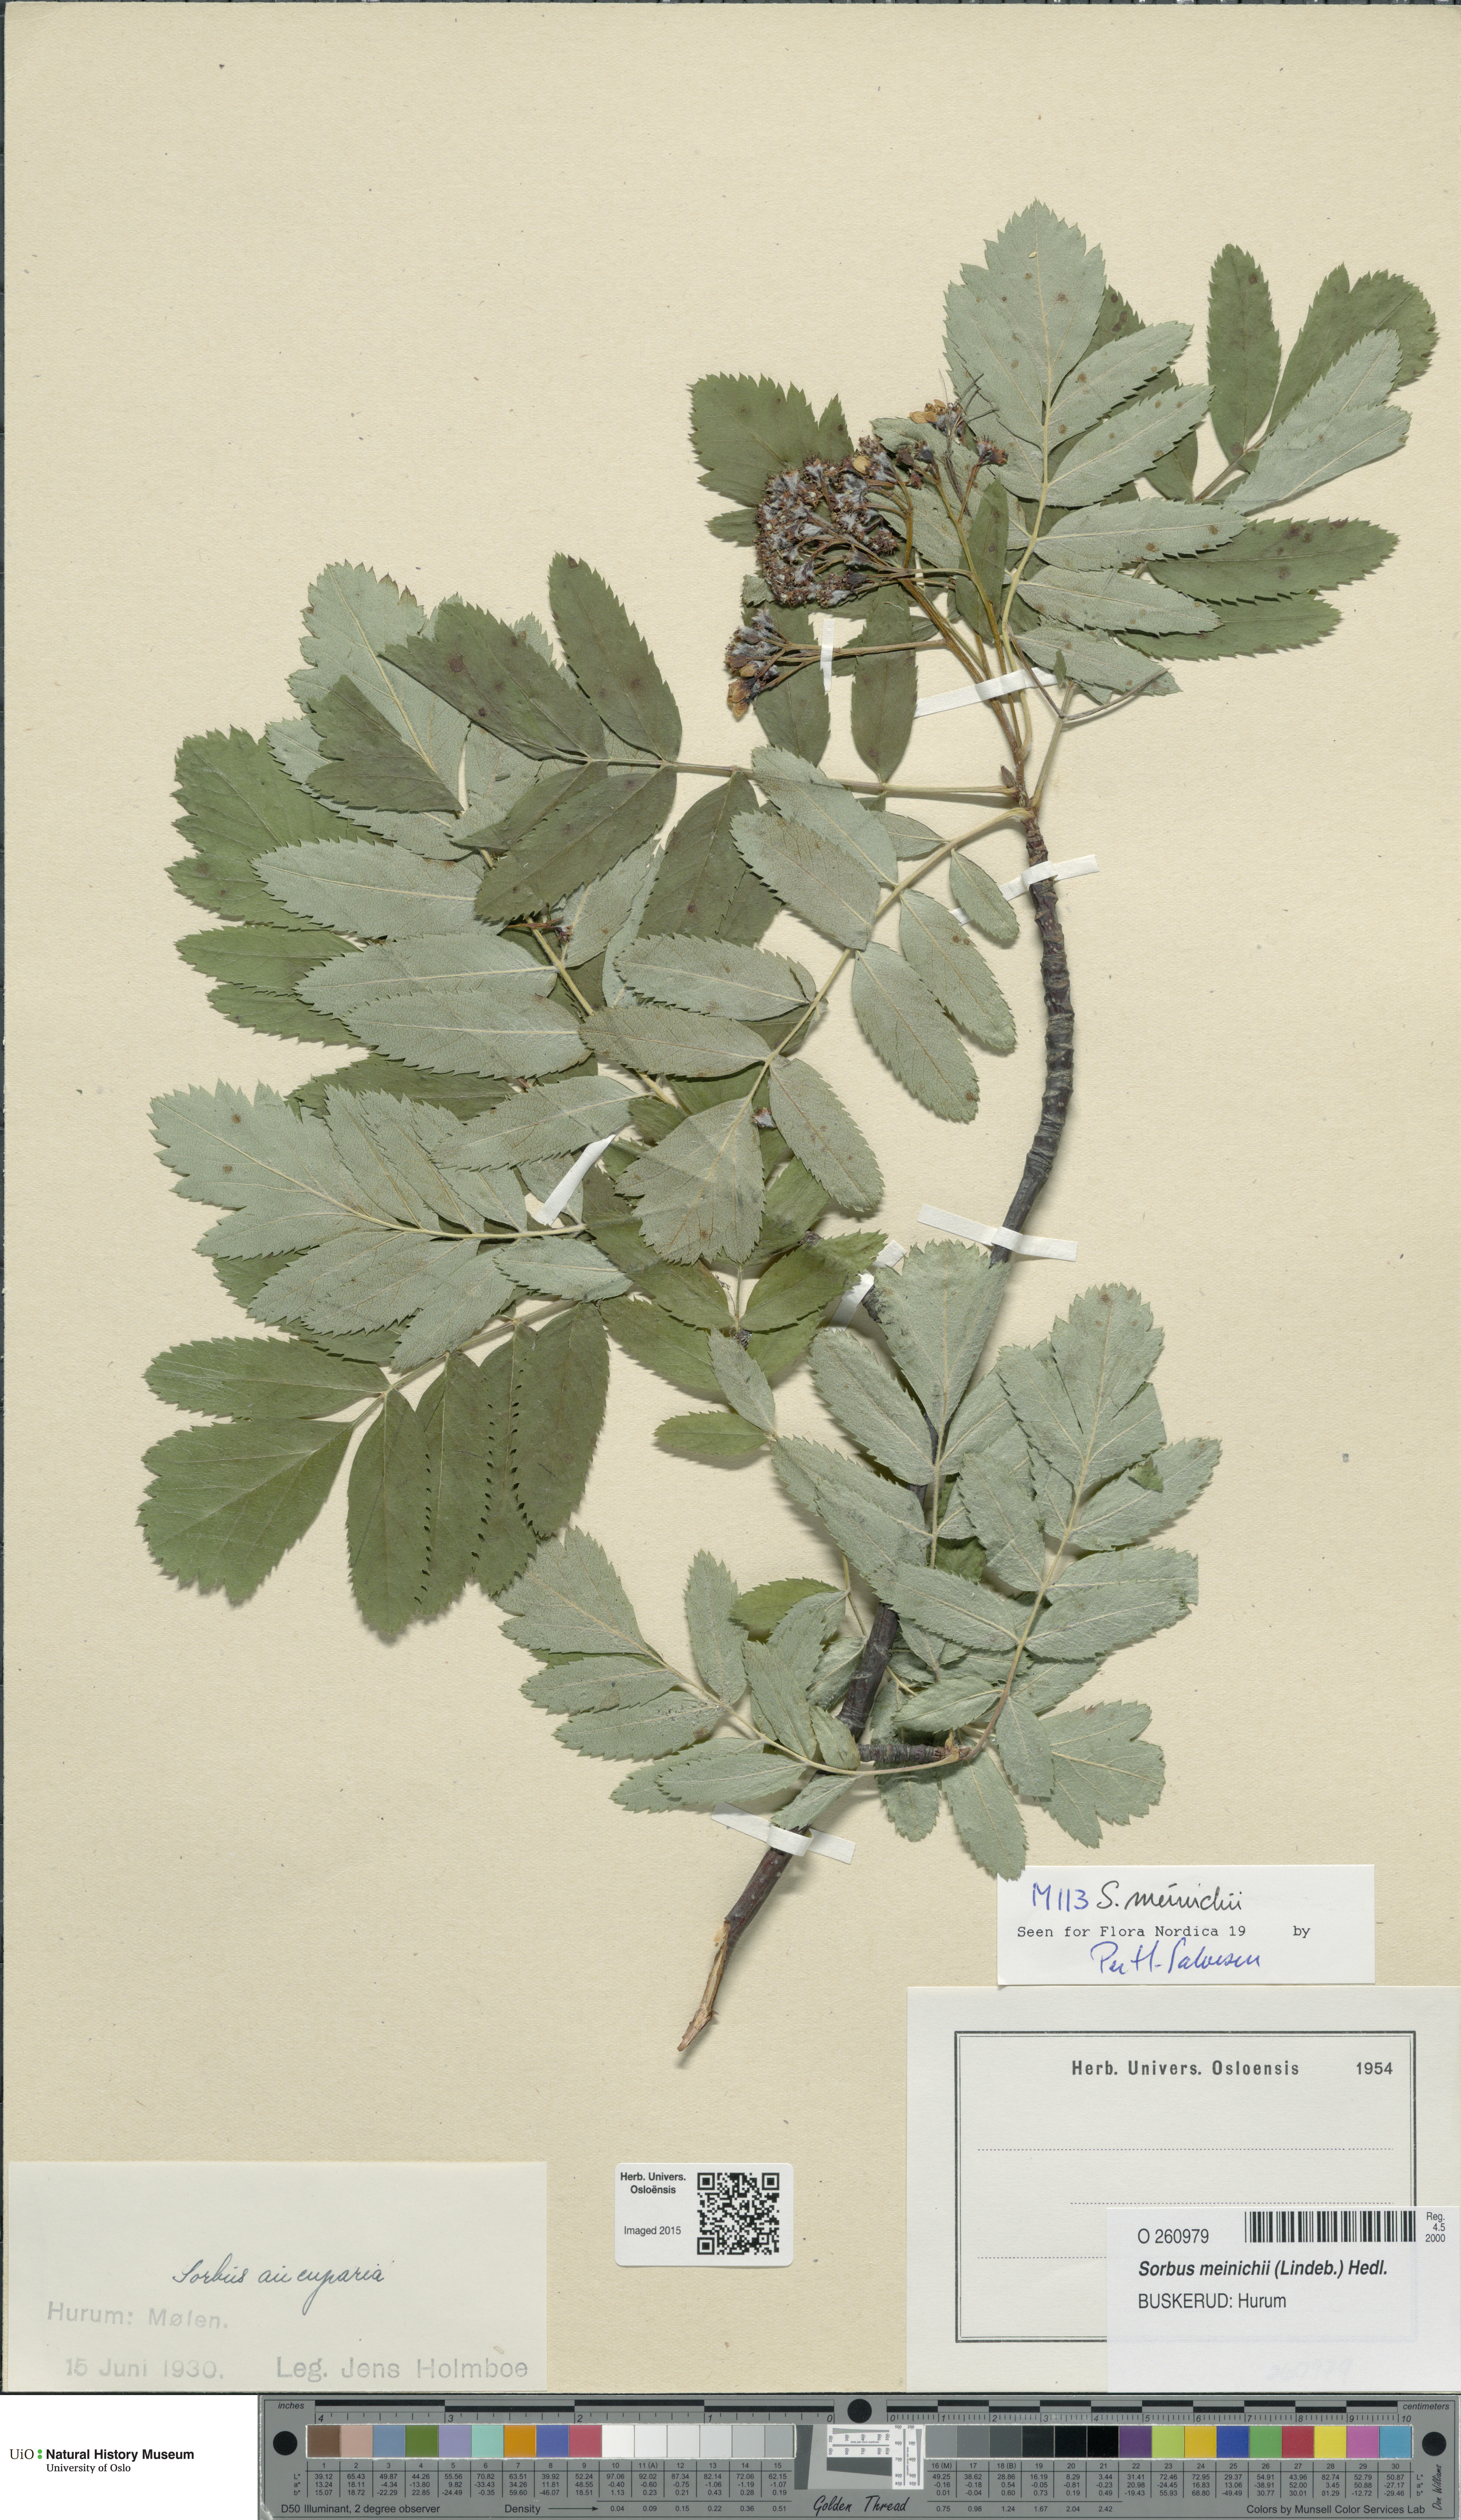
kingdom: Plantae
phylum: Tracheophyta
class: Magnoliopsida
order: Rosales
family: Rosaceae
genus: Hedlundia
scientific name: Hedlundia meinichii
